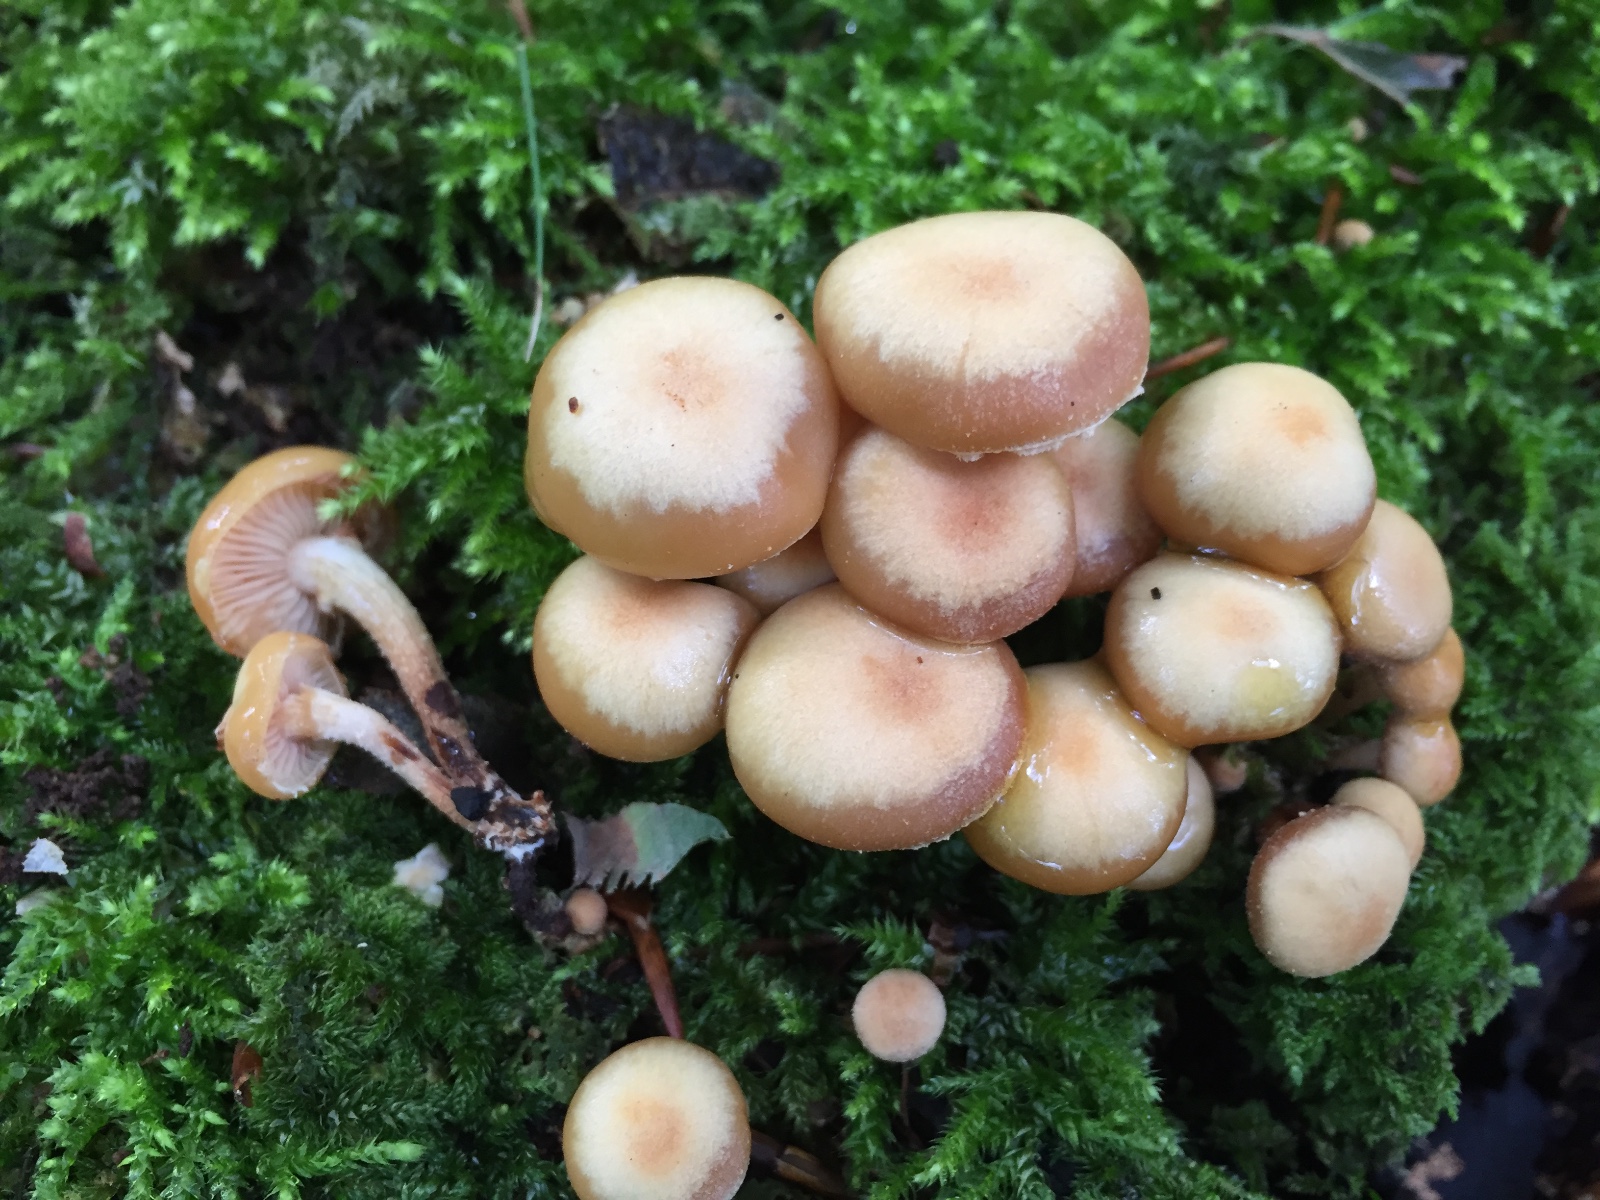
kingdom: Fungi
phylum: Basidiomycota
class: Agaricomycetes
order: Agaricales
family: Strophariaceae
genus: Kuehneromyces
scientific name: Kuehneromyces mutabilis
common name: foranderlig skælhat
